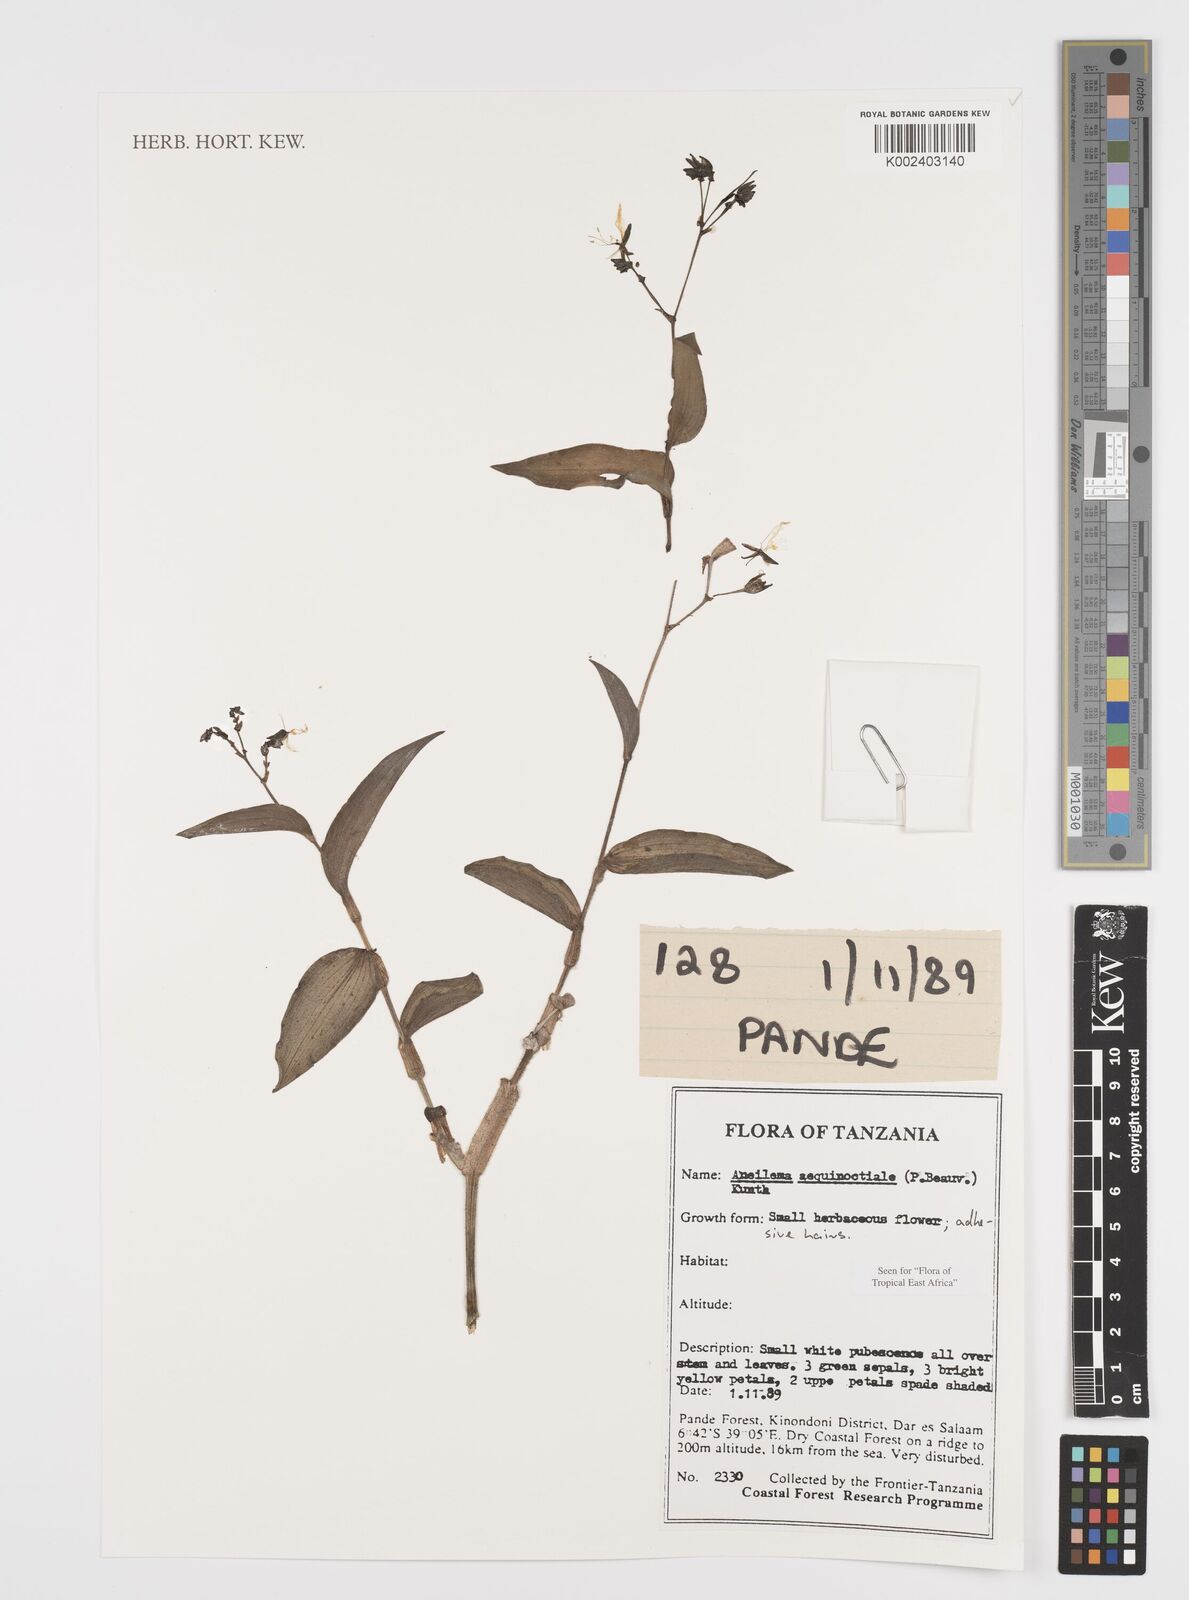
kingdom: Plantae
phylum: Tracheophyta
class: Liliopsida
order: Commelinales
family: Commelinaceae
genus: Aneilema
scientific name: Aneilema aequinoctiale
